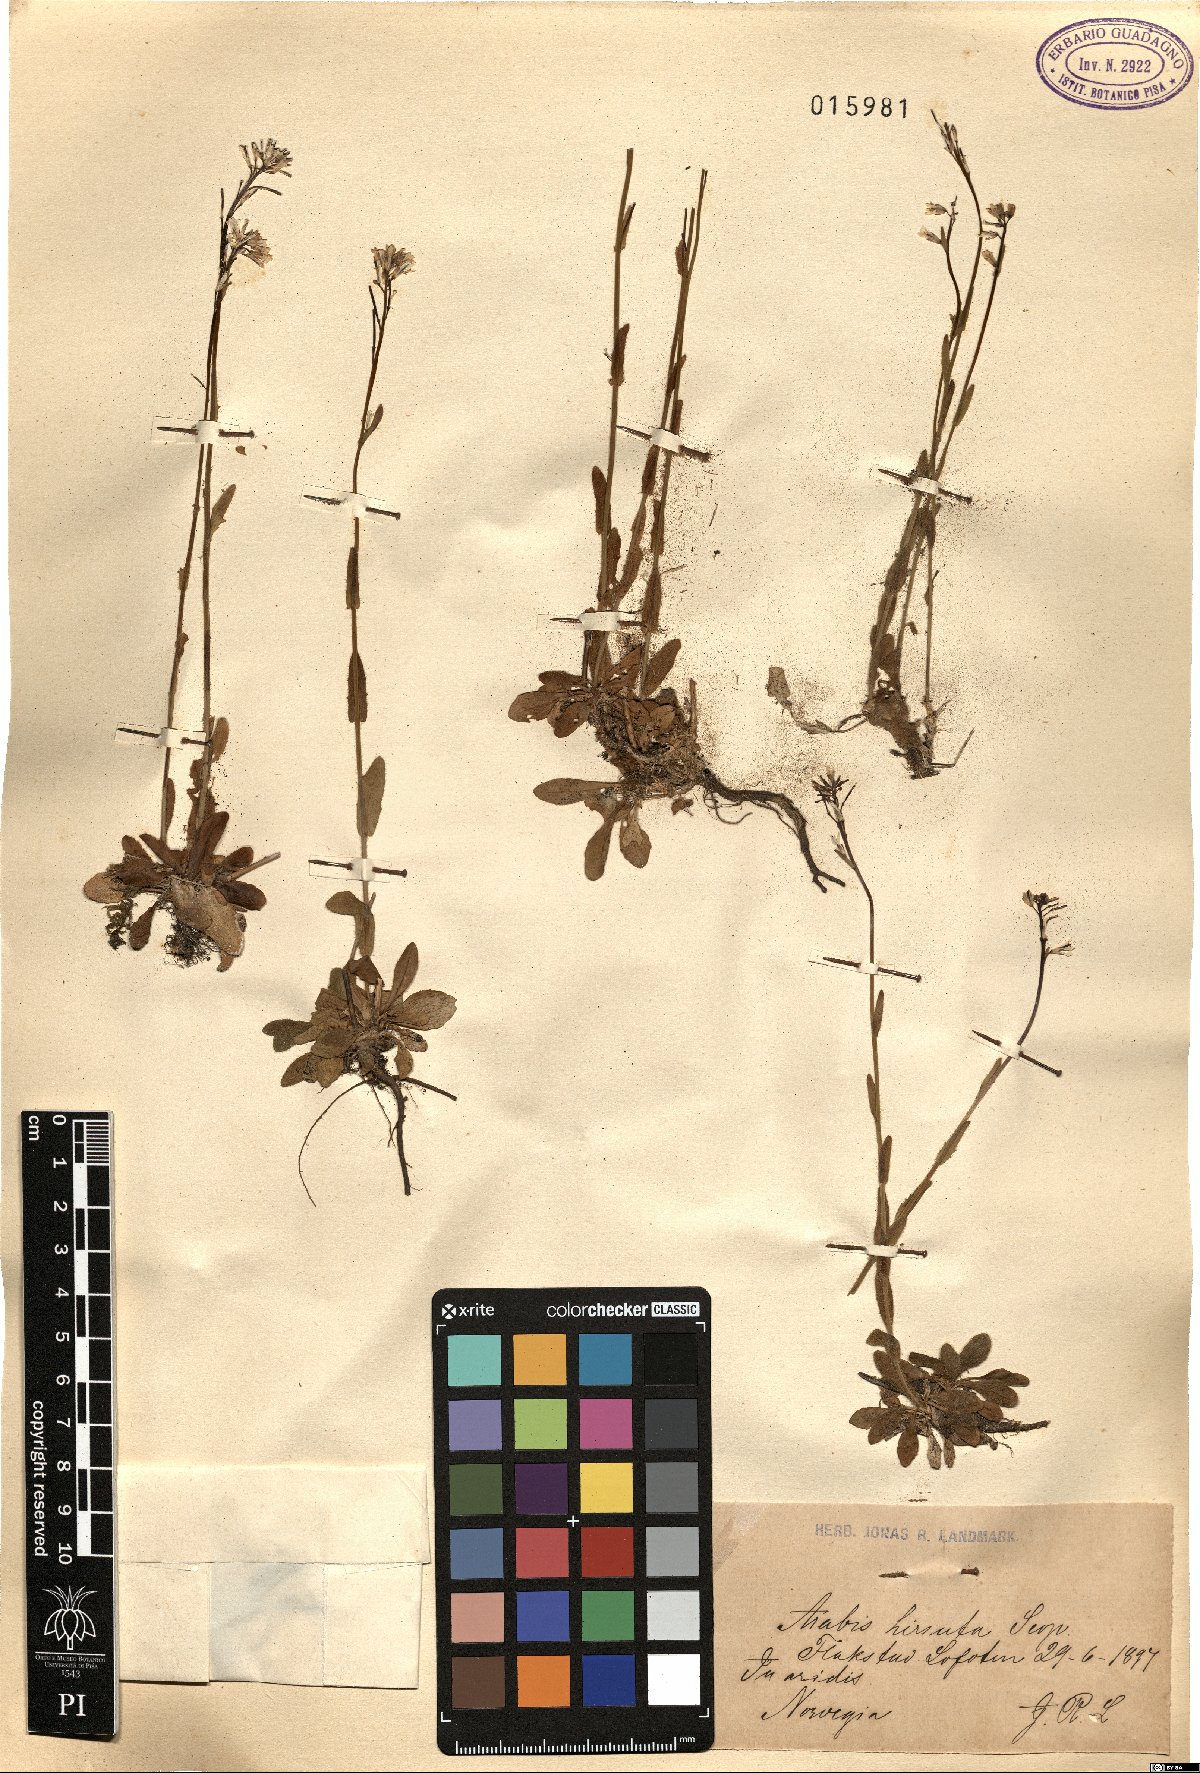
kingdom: Plantae
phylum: Tracheophyta
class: Magnoliopsida
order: Brassicales
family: Brassicaceae
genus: Arabis
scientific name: Arabis hirsuta
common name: Hairy rock-cress
